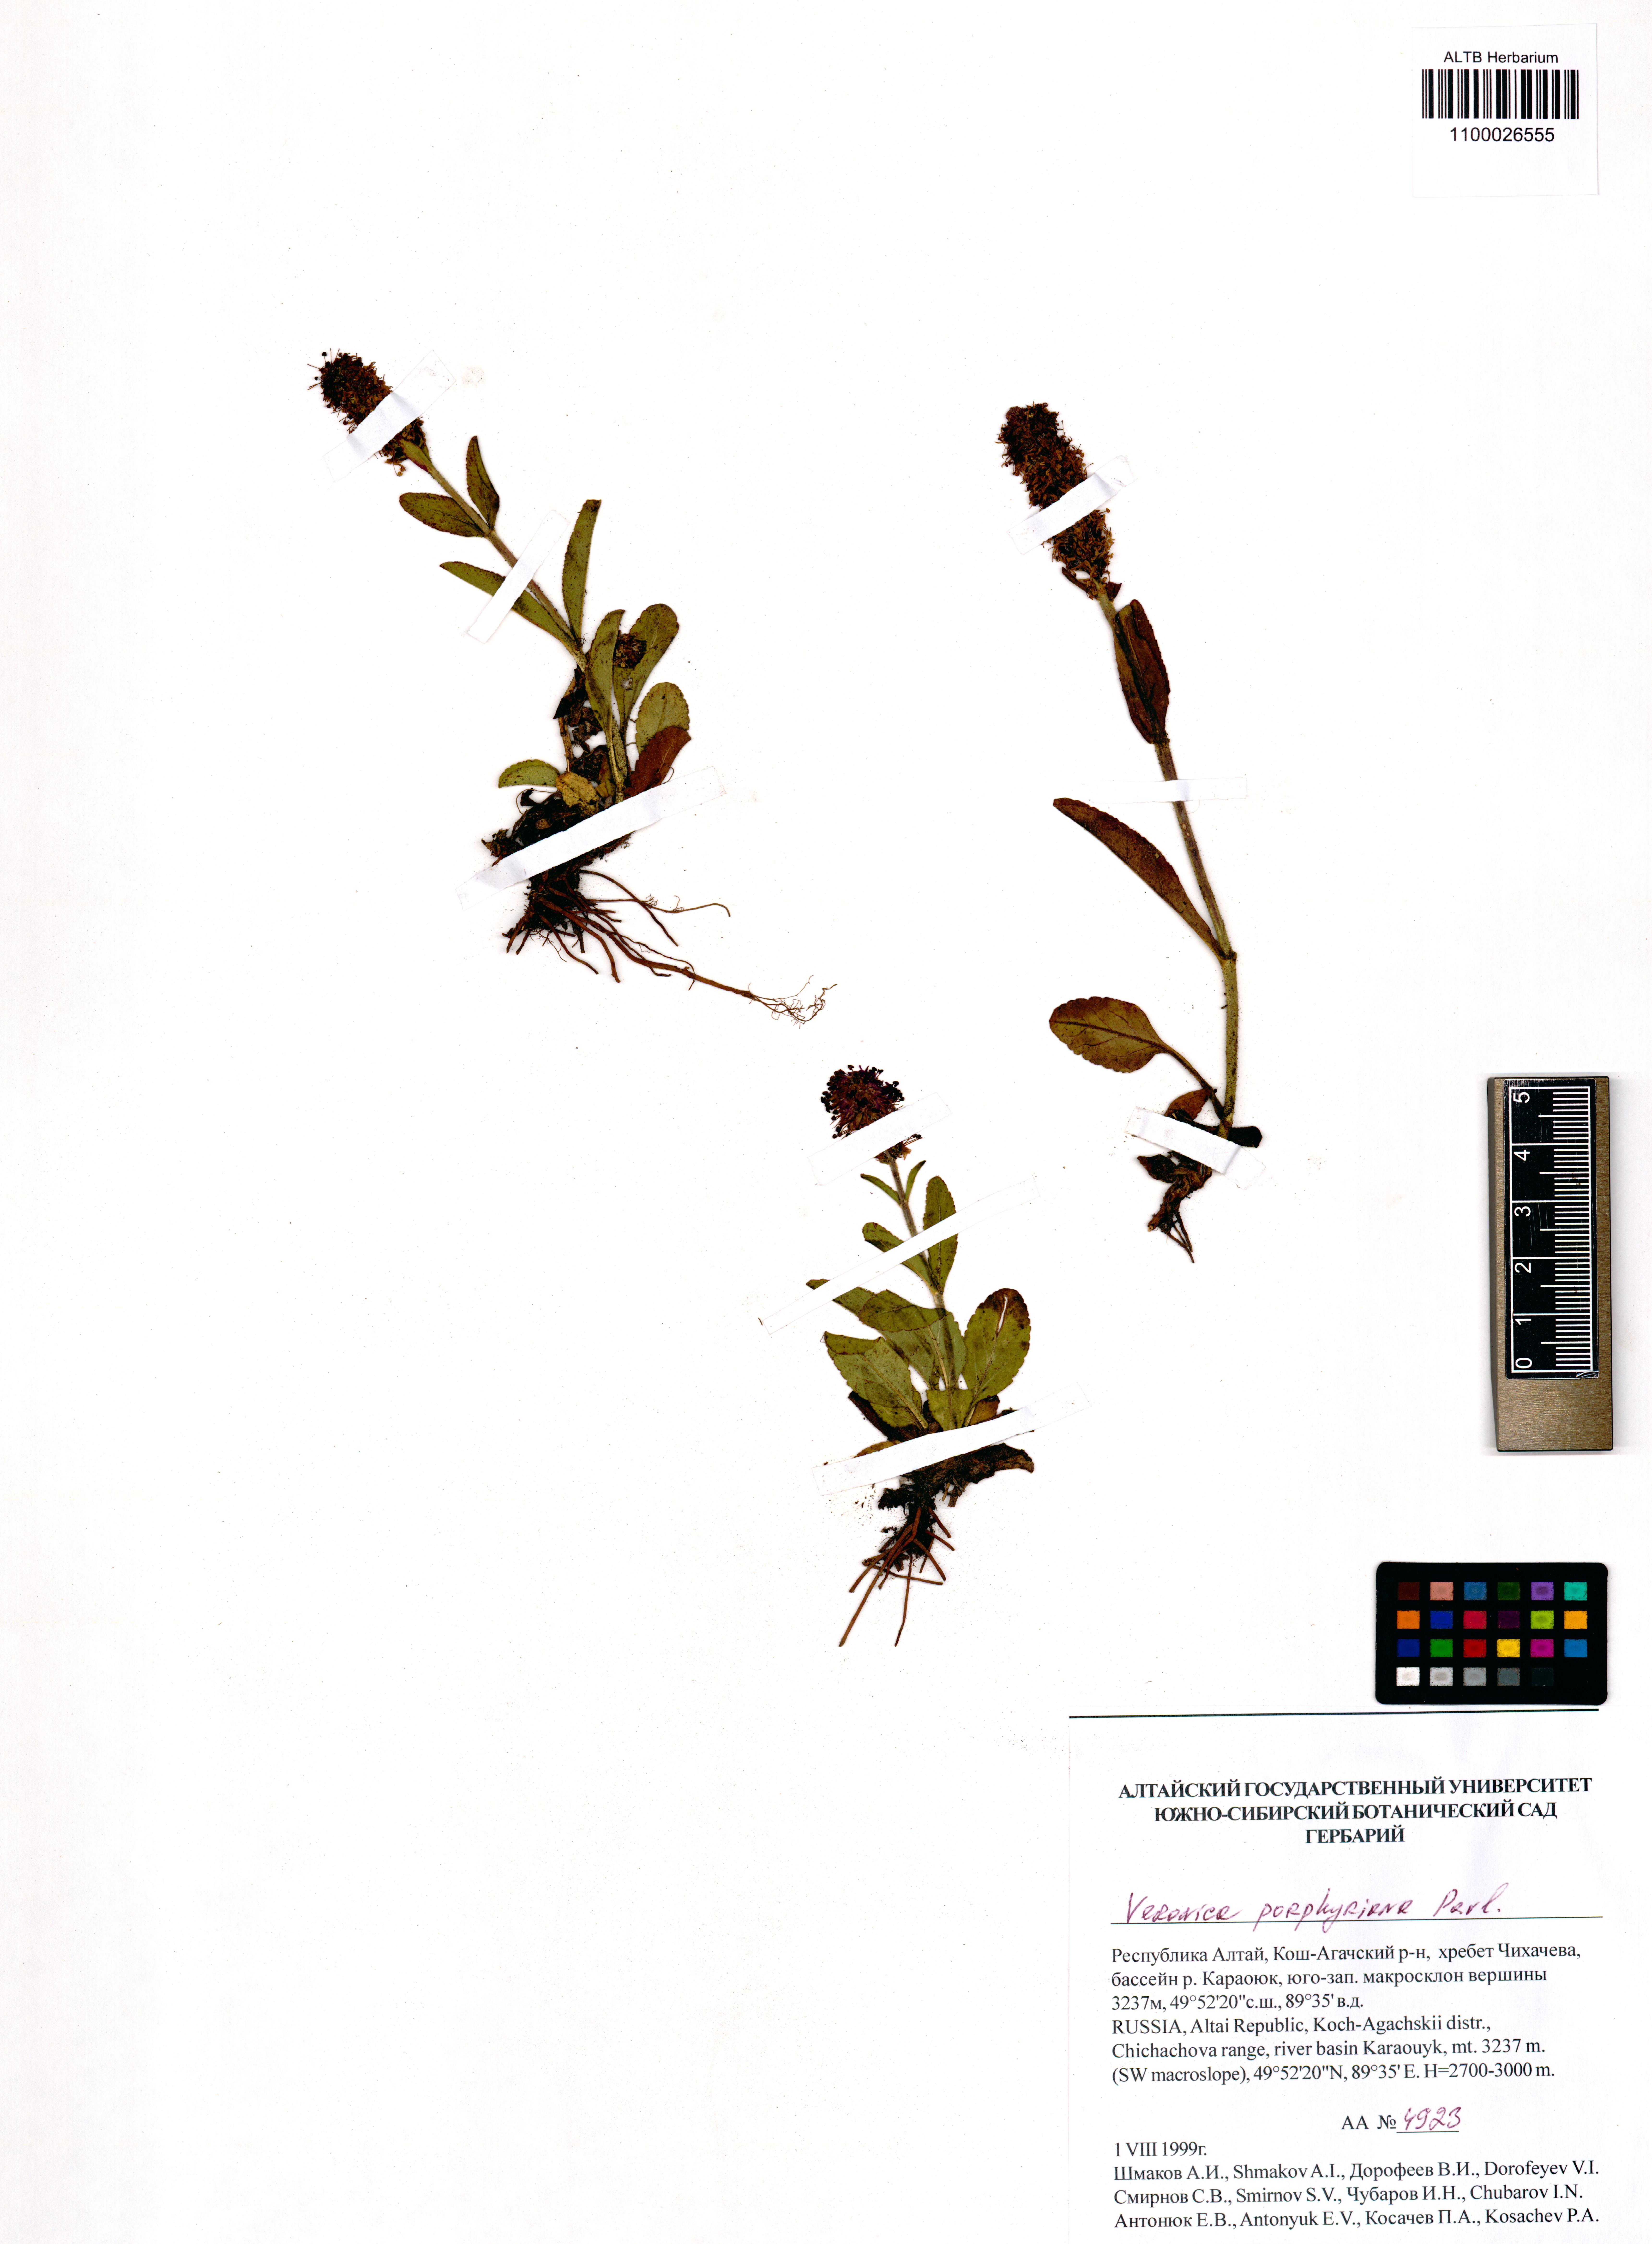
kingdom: Plantae
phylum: Tracheophyta
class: Magnoliopsida
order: Lamiales
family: Plantaginaceae
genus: Veronica
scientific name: Veronica porphyriana
